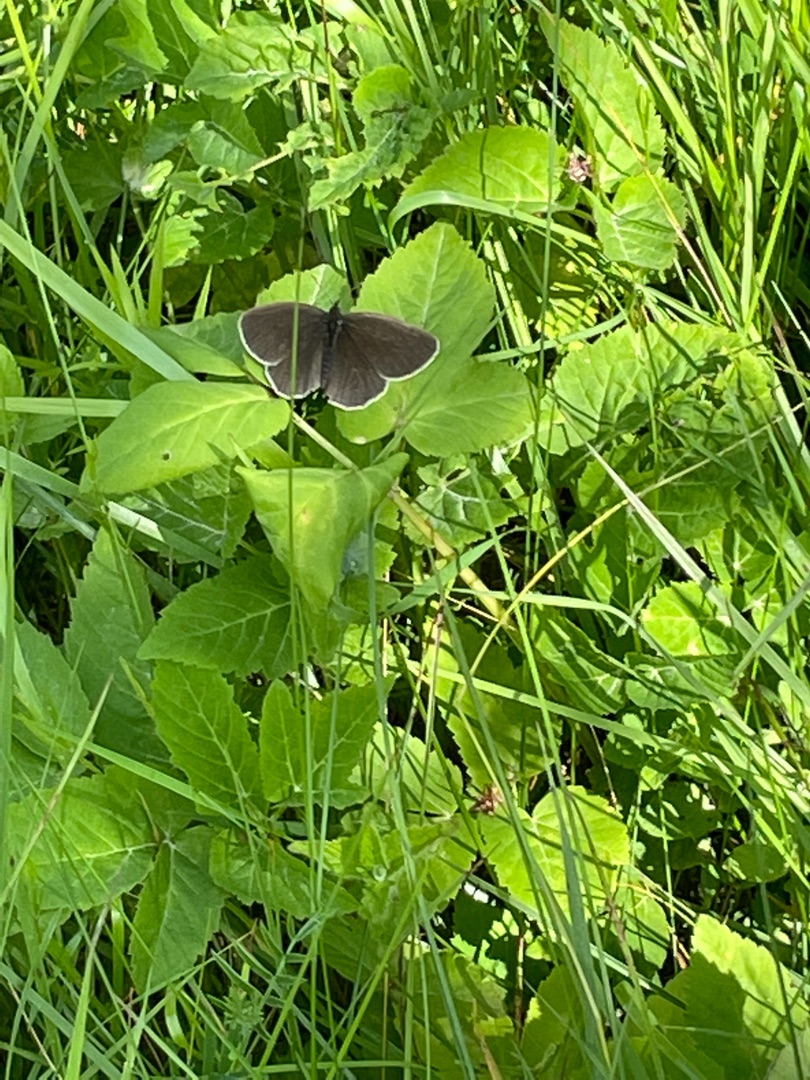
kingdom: Animalia
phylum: Arthropoda
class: Insecta
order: Lepidoptera
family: Nymphalidae
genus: Aphantopus
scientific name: Aphantopus hyperantus
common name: Engrandøje
